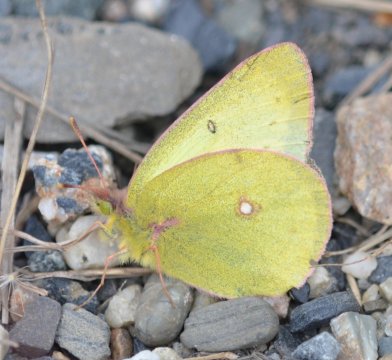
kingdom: Animalia
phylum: Arthropoda
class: Insecta
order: Lepidoptera
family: Pieridae
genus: Colias
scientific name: Colias philodice
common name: Clouded Sulphur
